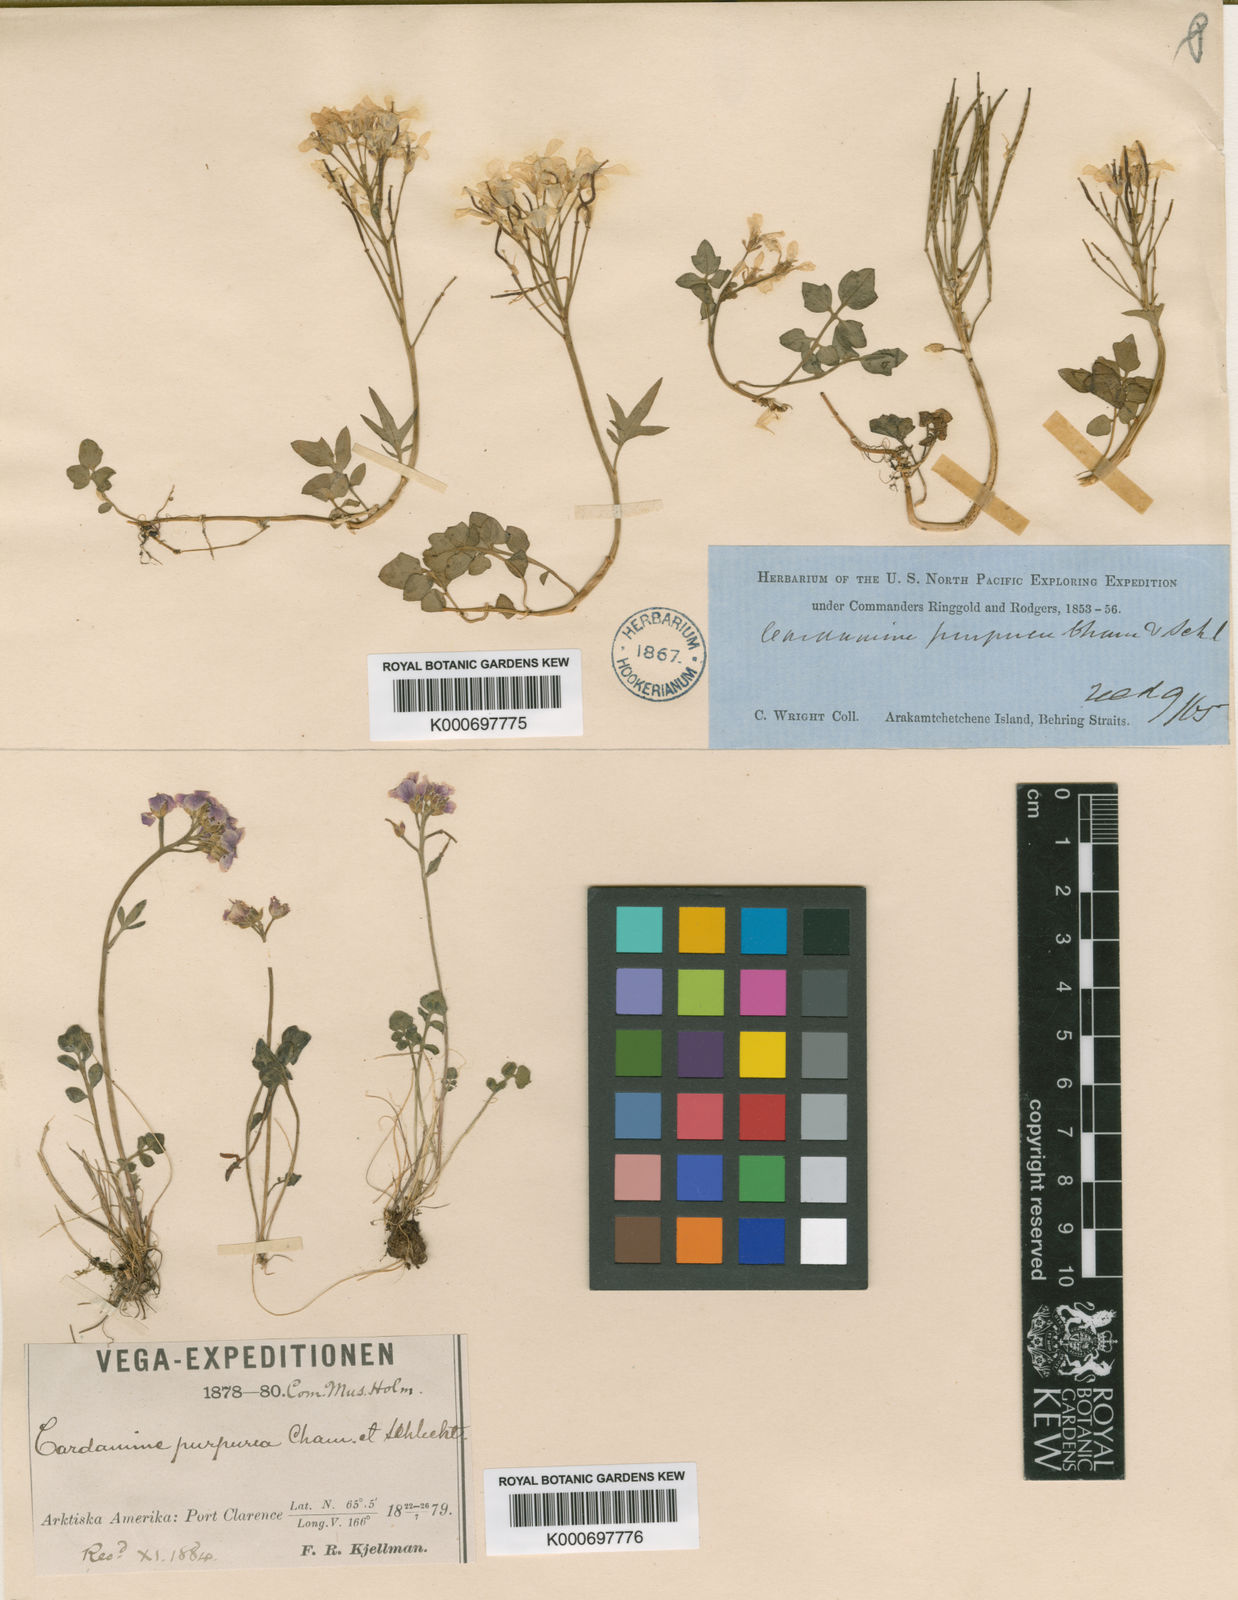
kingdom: Plantae
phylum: Tracheophyta
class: Magnoliopsida
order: Brassicales
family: Brassicaceae
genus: Cardamine
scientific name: Cardamine purpurea
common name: Purple bittercress
